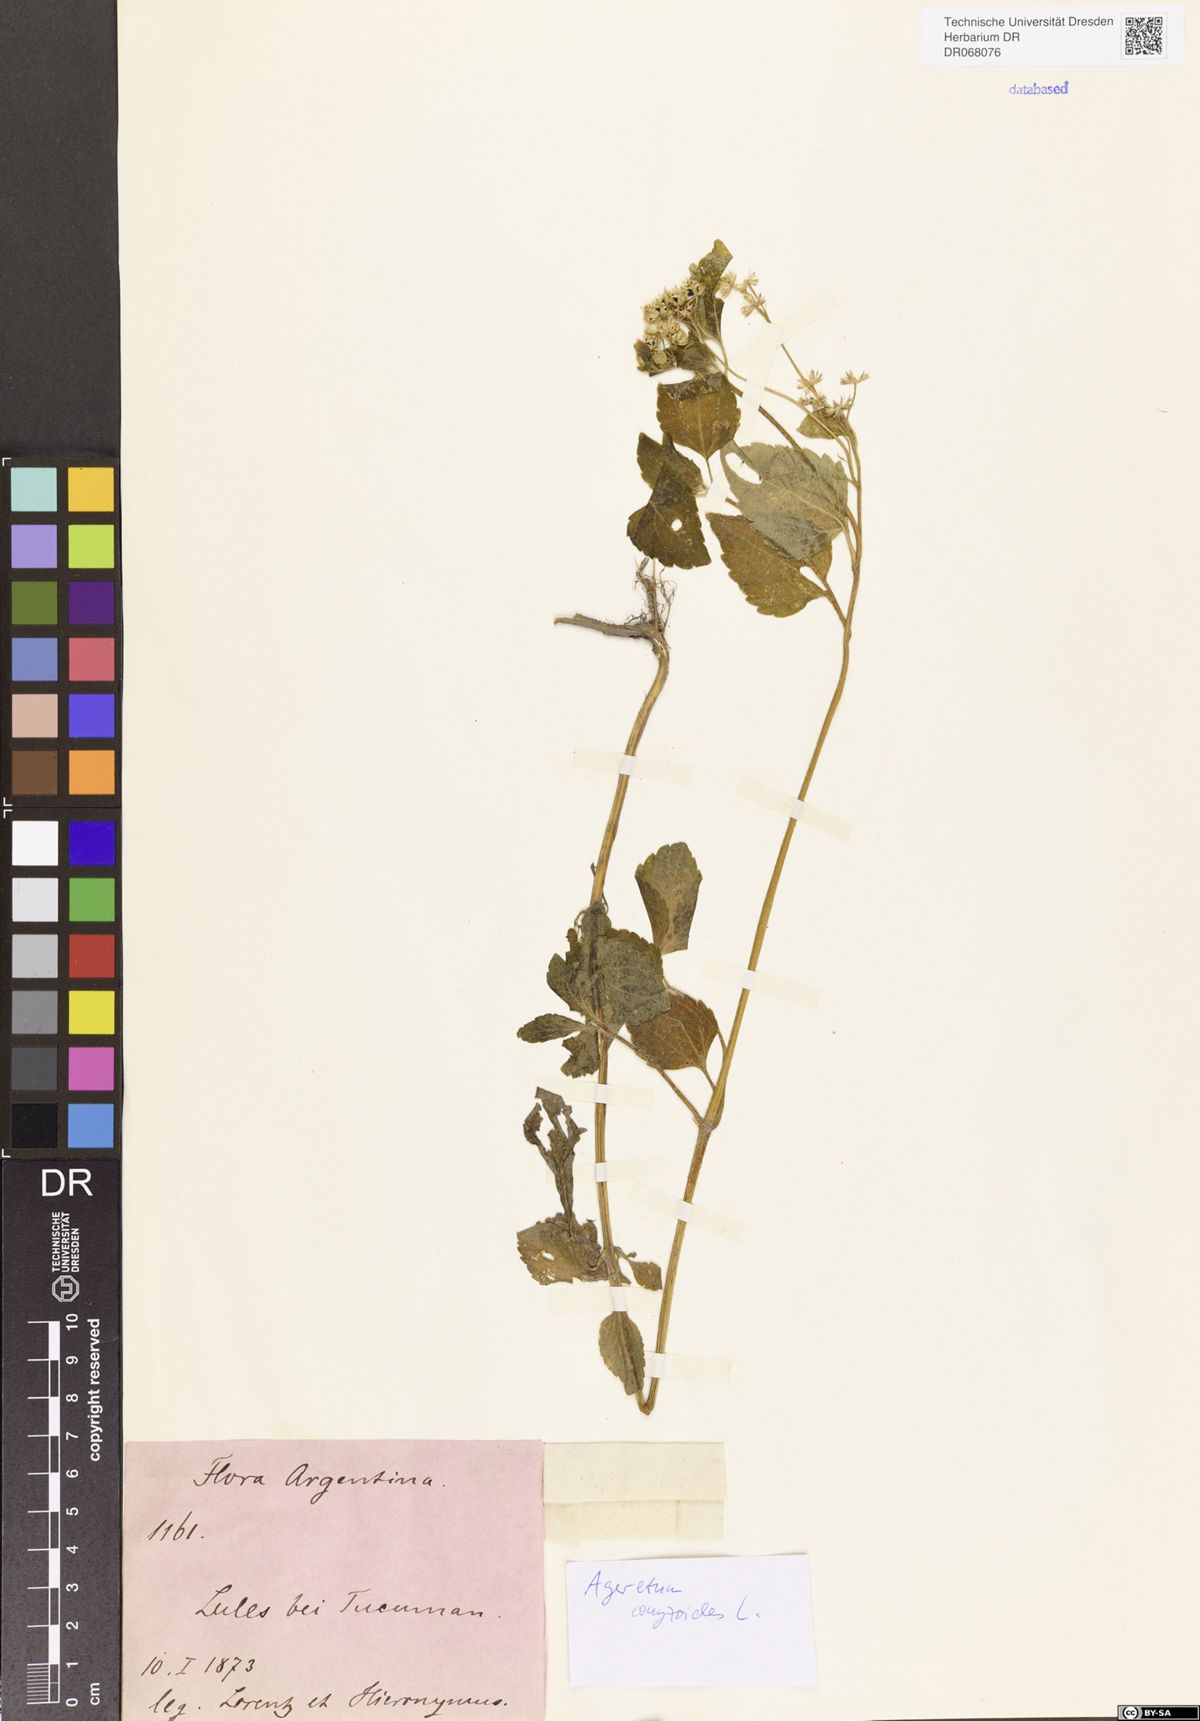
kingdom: Plantae
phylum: Tracheophyta
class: Magnoliopsida
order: Asterales
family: Asteraceae
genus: Ageratum
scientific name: Ageratum conyzoides
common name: Tropical whiteweed
